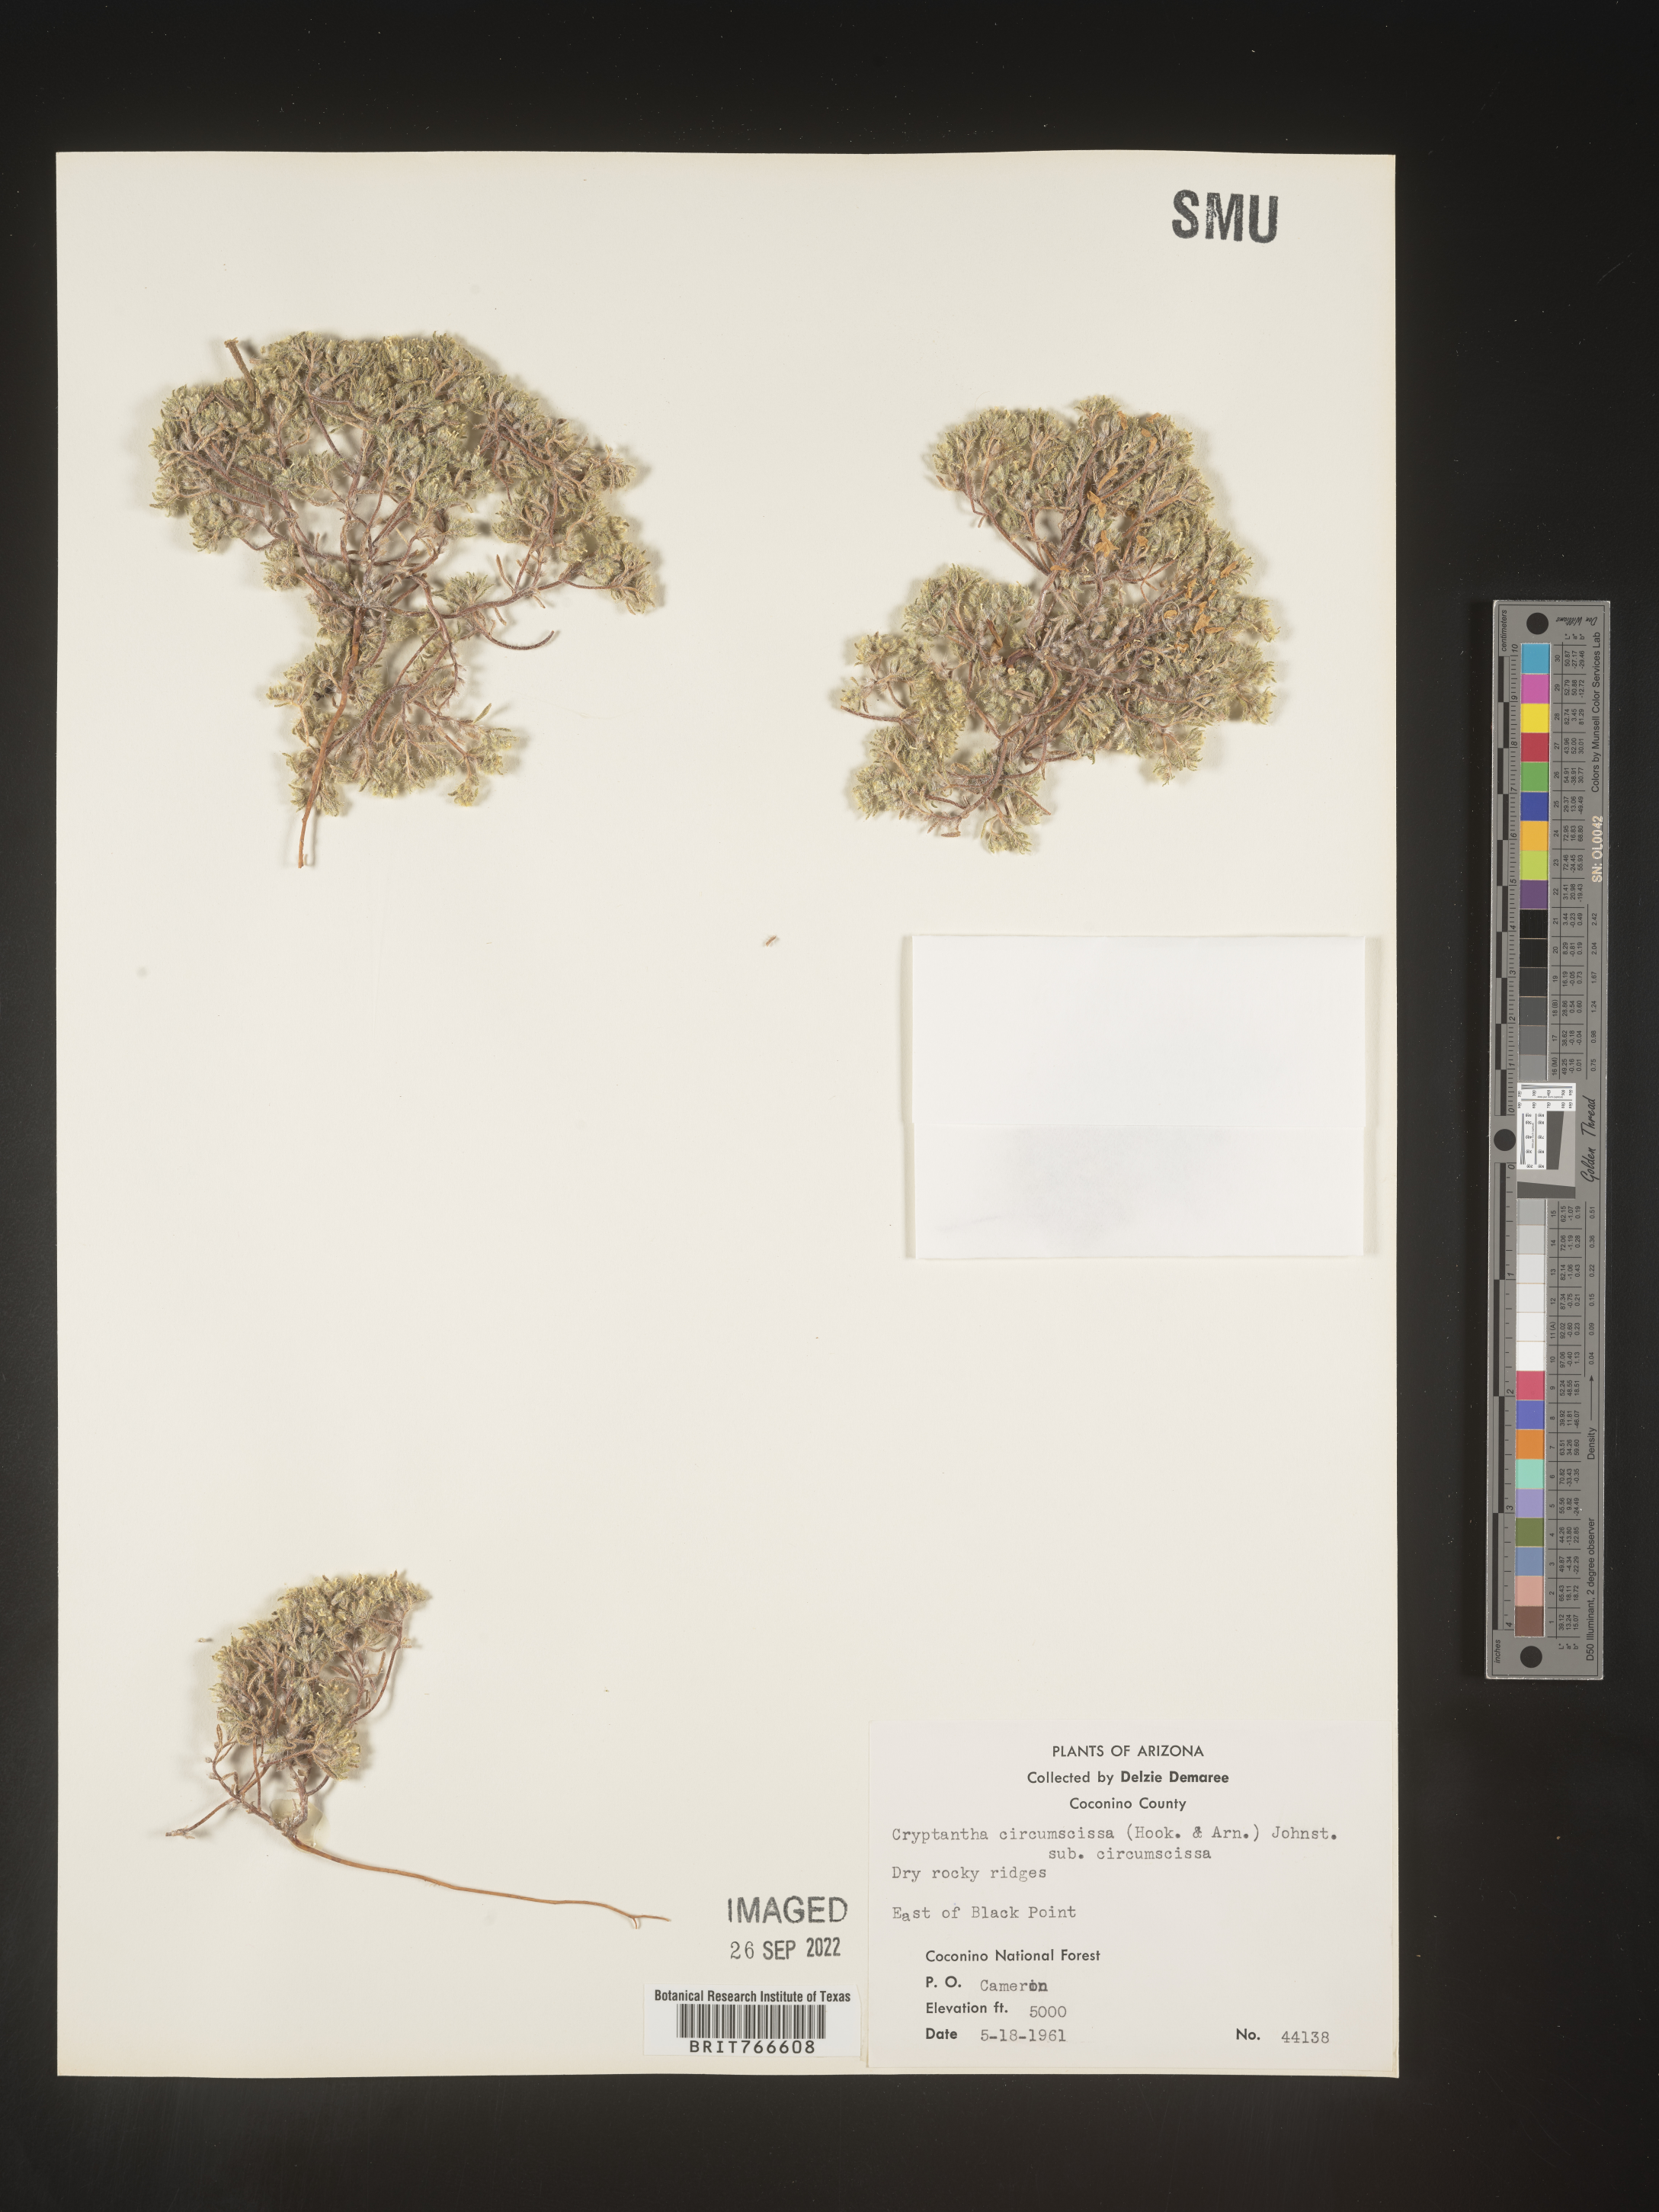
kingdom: Plantae
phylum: Tracheophyta
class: Magnoliopsida
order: Boraginales
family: Boraginaceae
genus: Cryptantha
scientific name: Cryptantha
